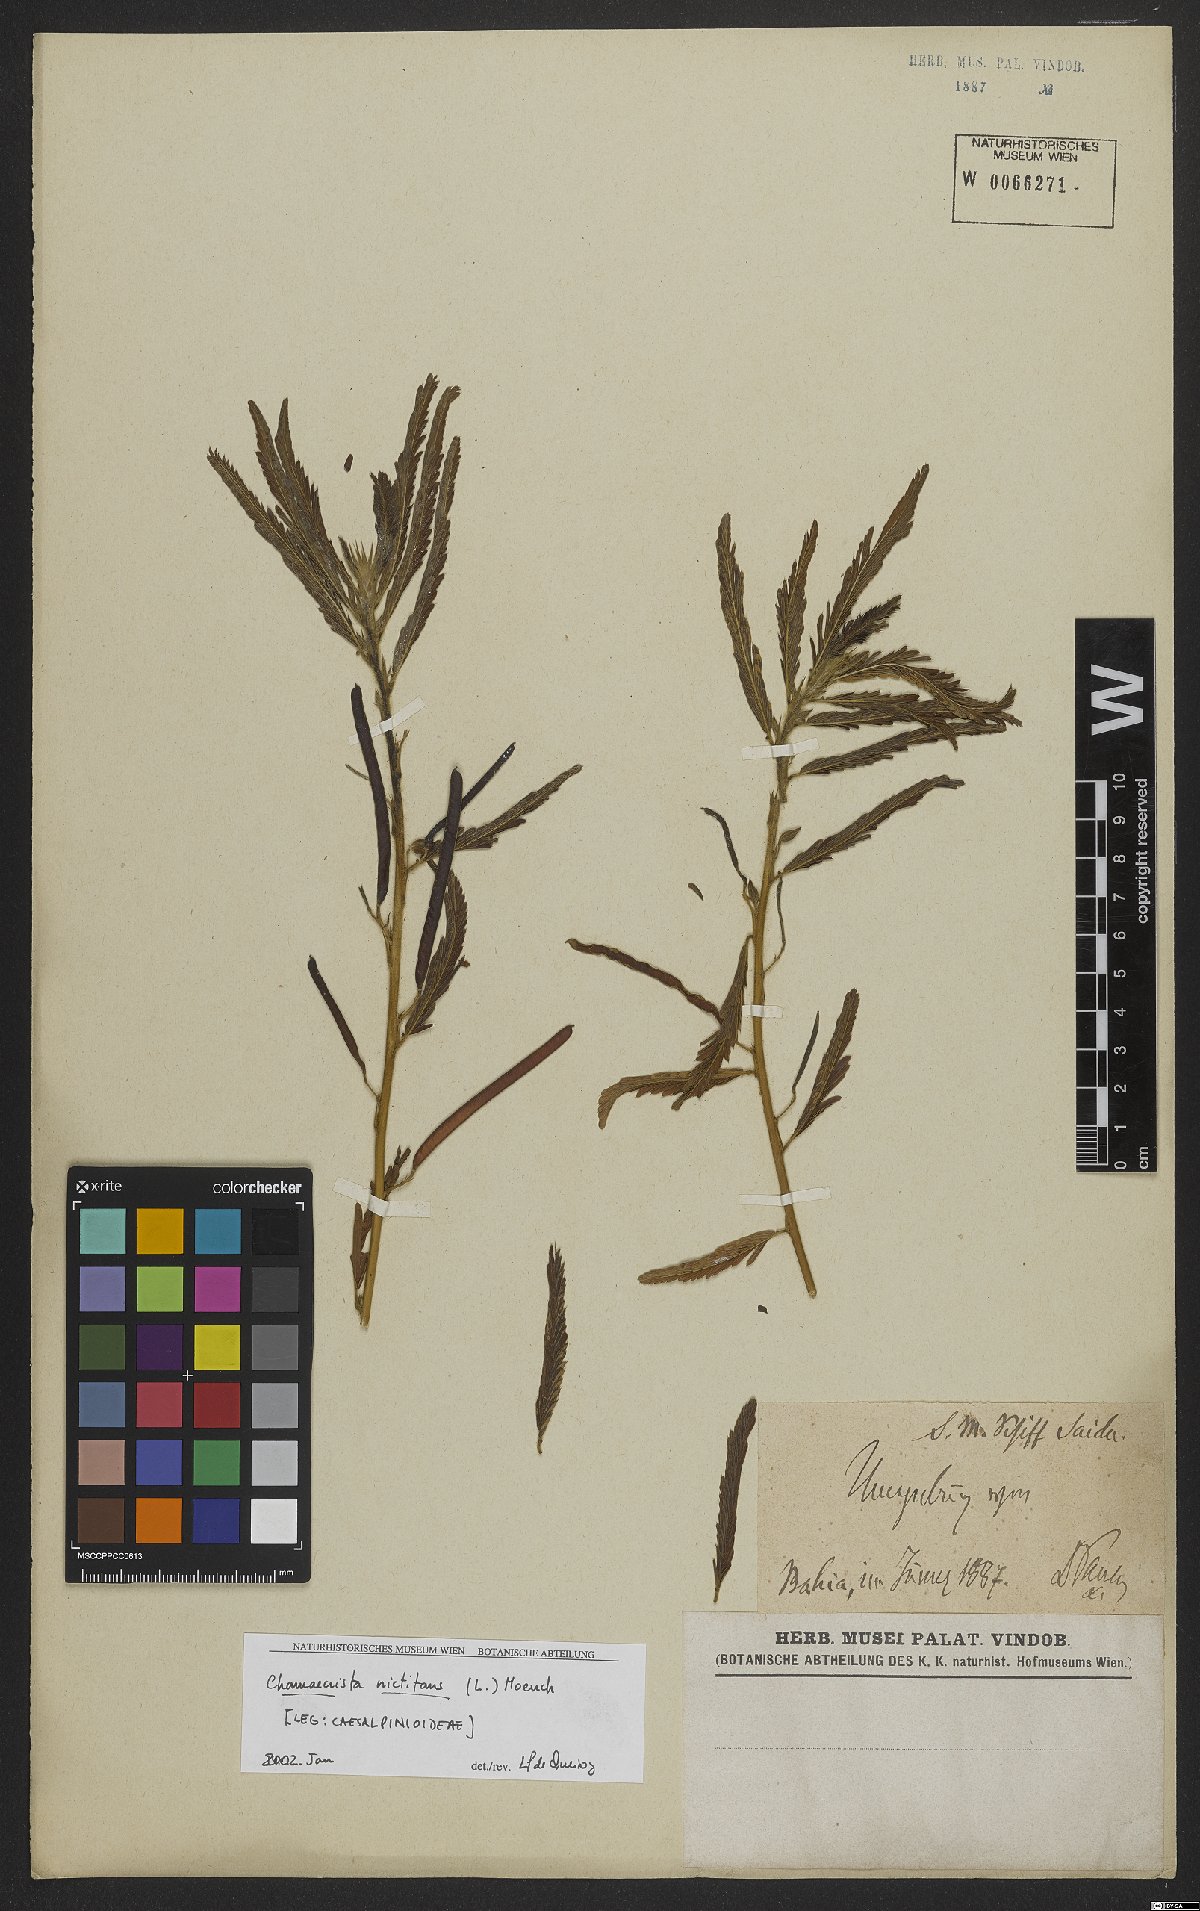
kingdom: Plantae
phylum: Tracheophyta
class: Magnoliopsida
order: Fabales
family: Fabaceae
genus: Chamaecrista
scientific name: Chamaecrista nictitans
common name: Sensitive cassia
